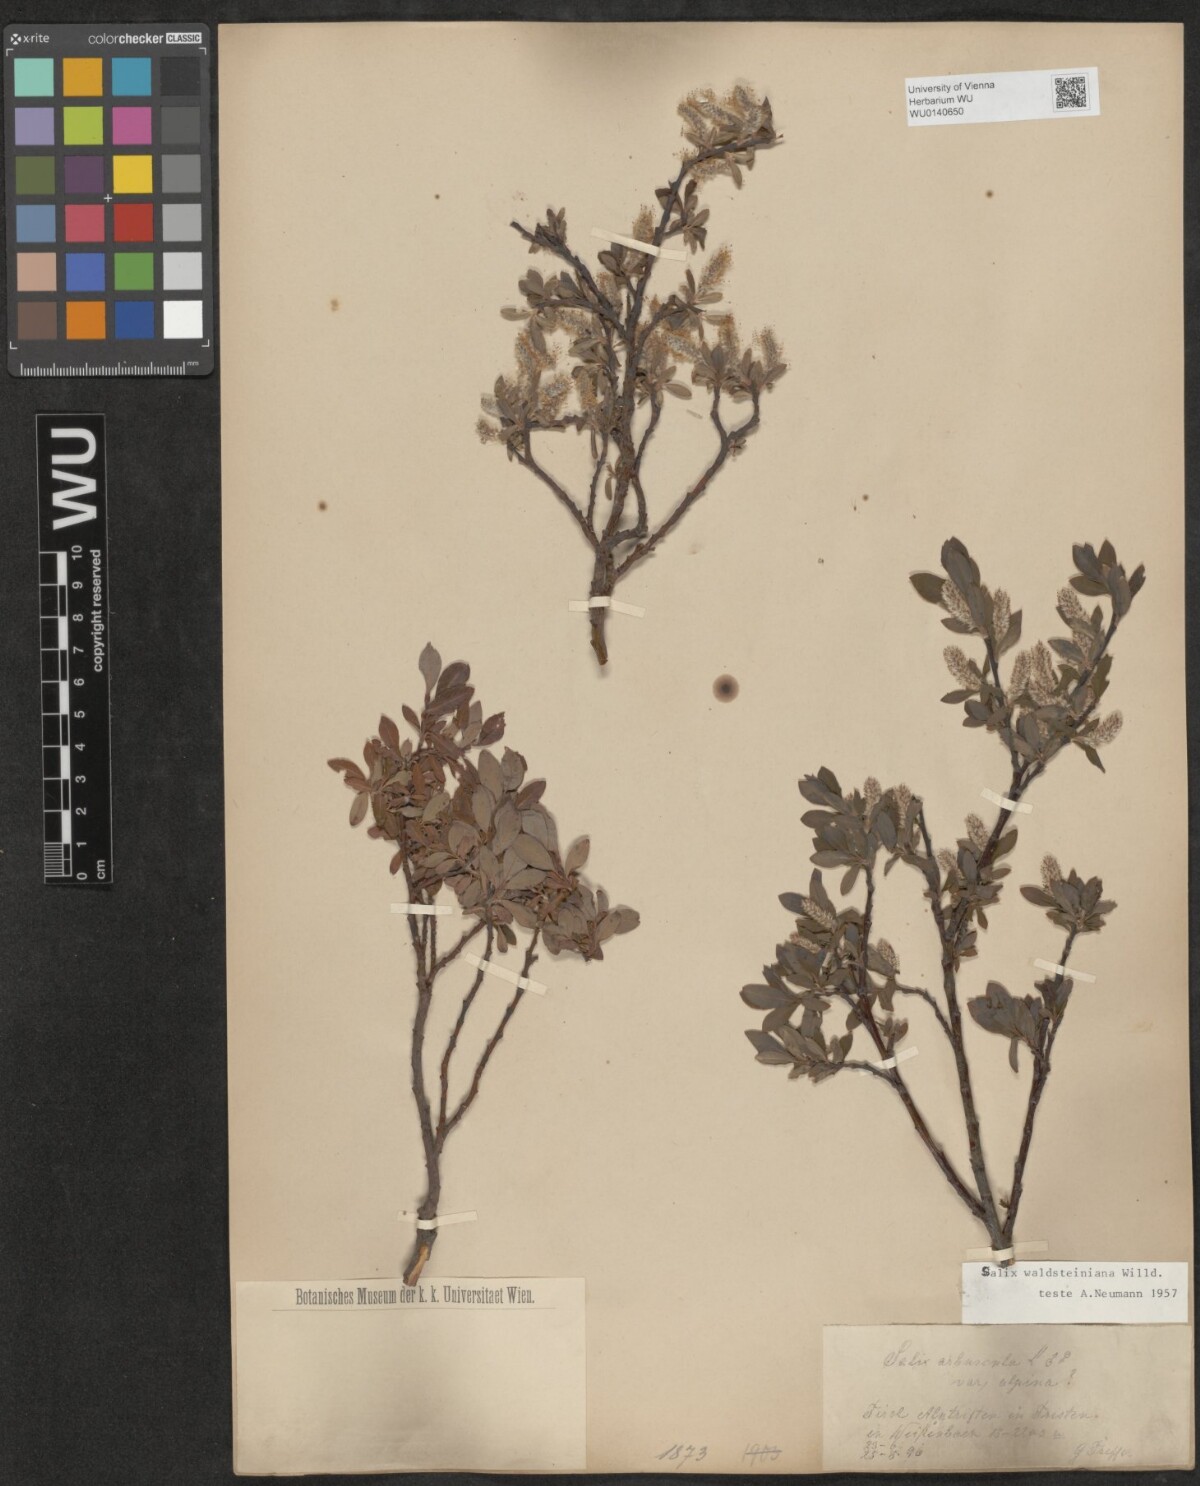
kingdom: Plantae
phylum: Tracheophyta
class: Magnoliopsida
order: Malpighiales
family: Salicaceae
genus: Salix
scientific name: Salix waldsteiniana
